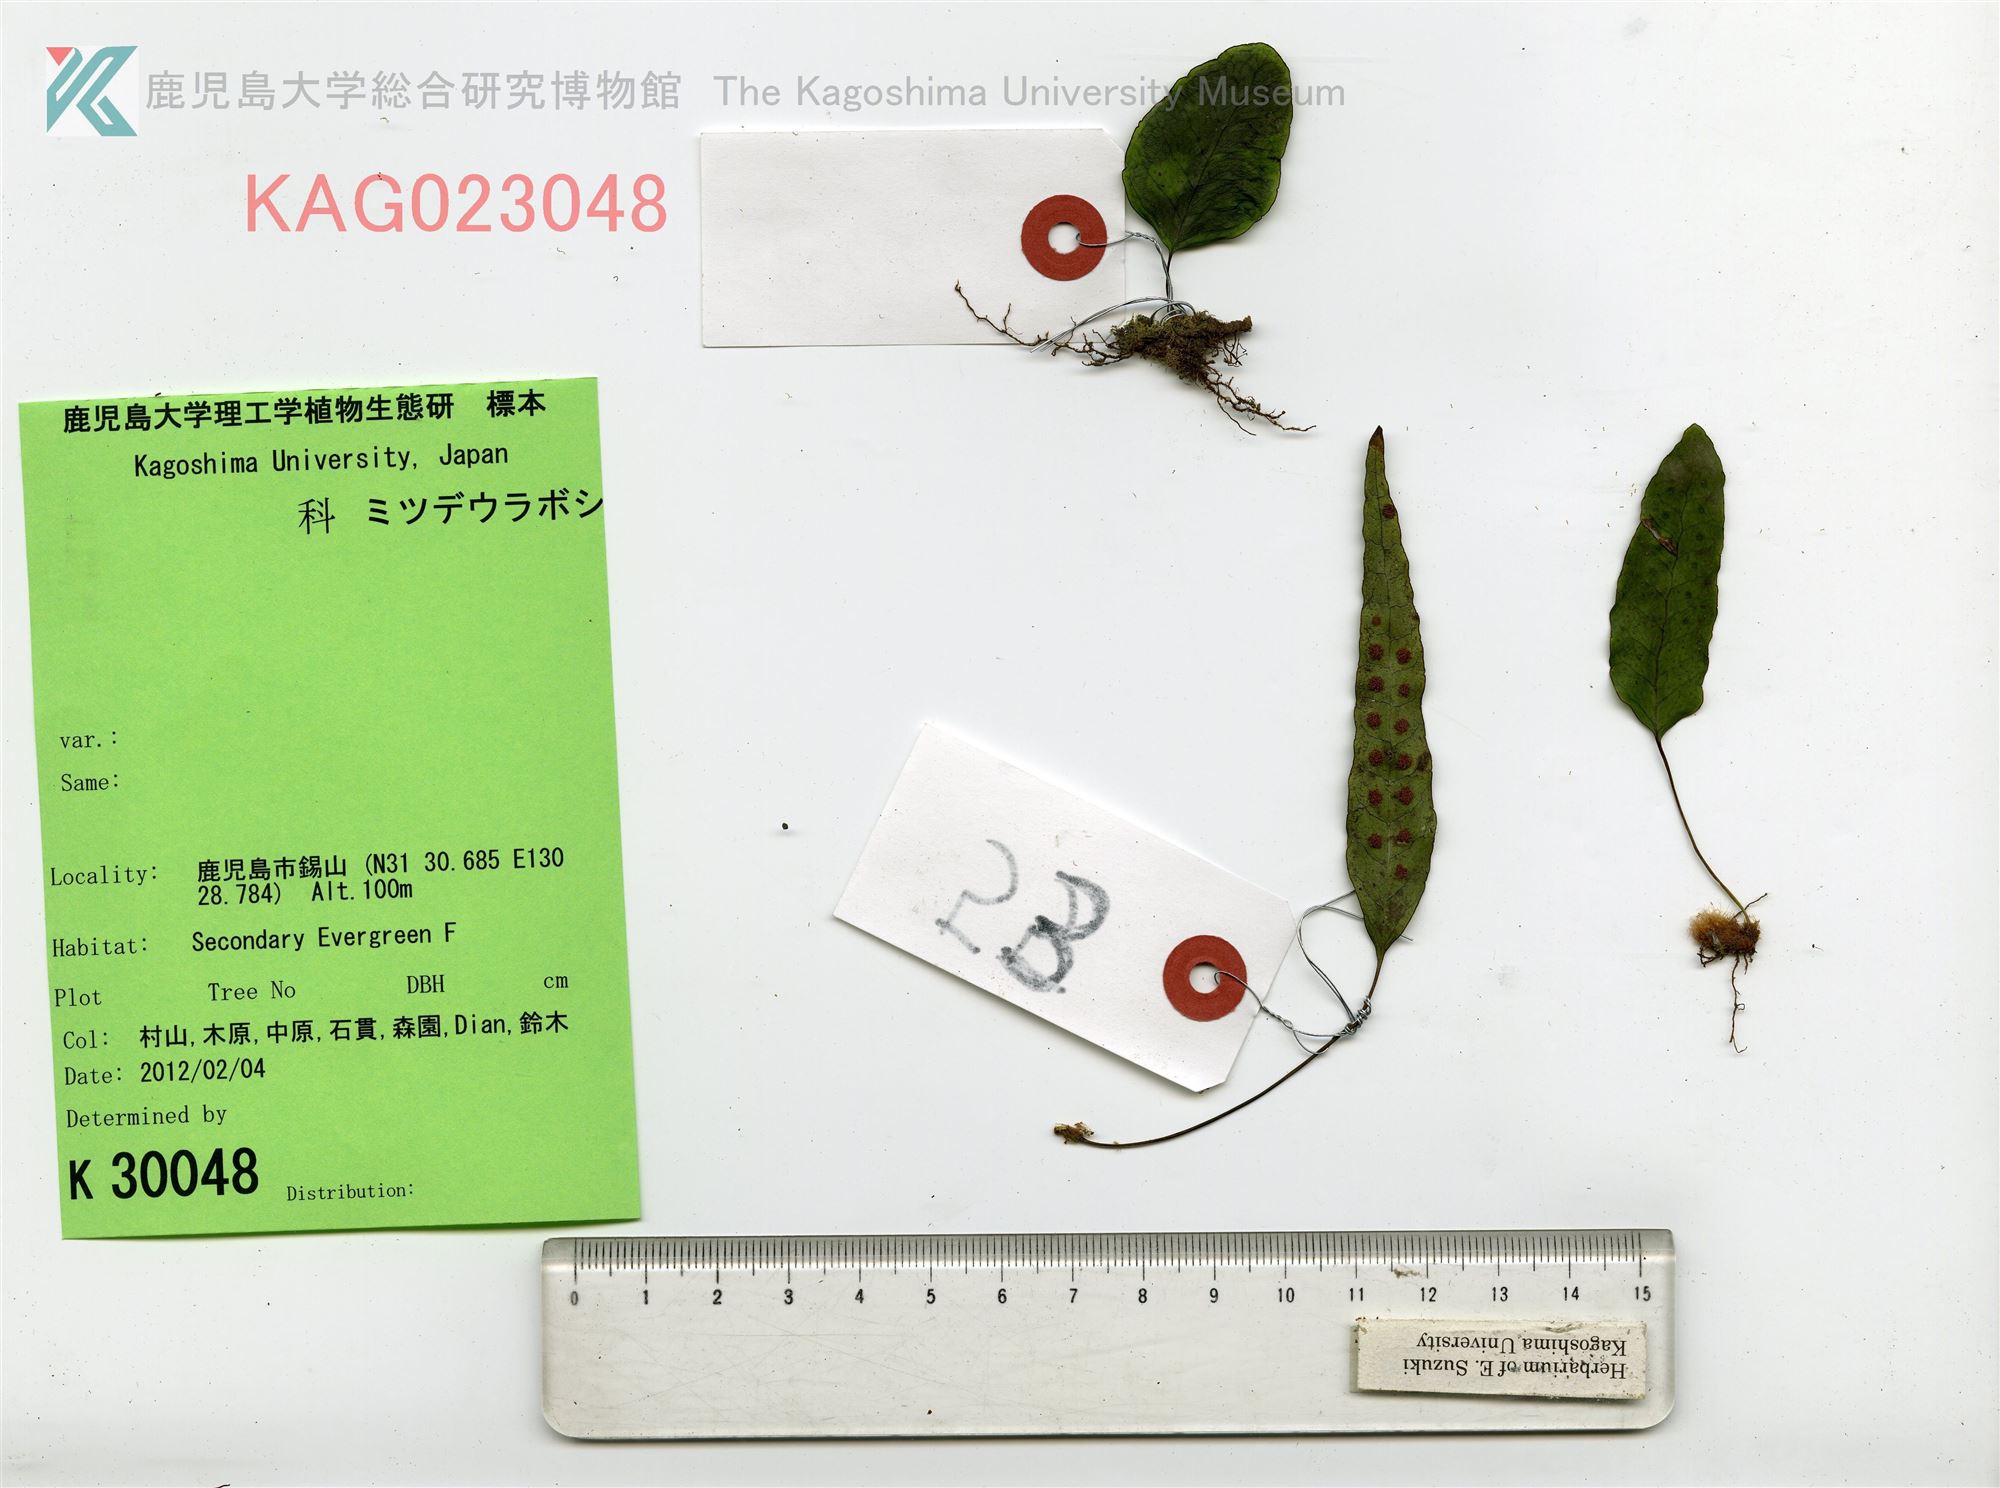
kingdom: Plantae
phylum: Tracheophyta
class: Polypodiopsida
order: Polypodiales
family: Polypodiaceae
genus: Selliguea
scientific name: Selliguea hastata
